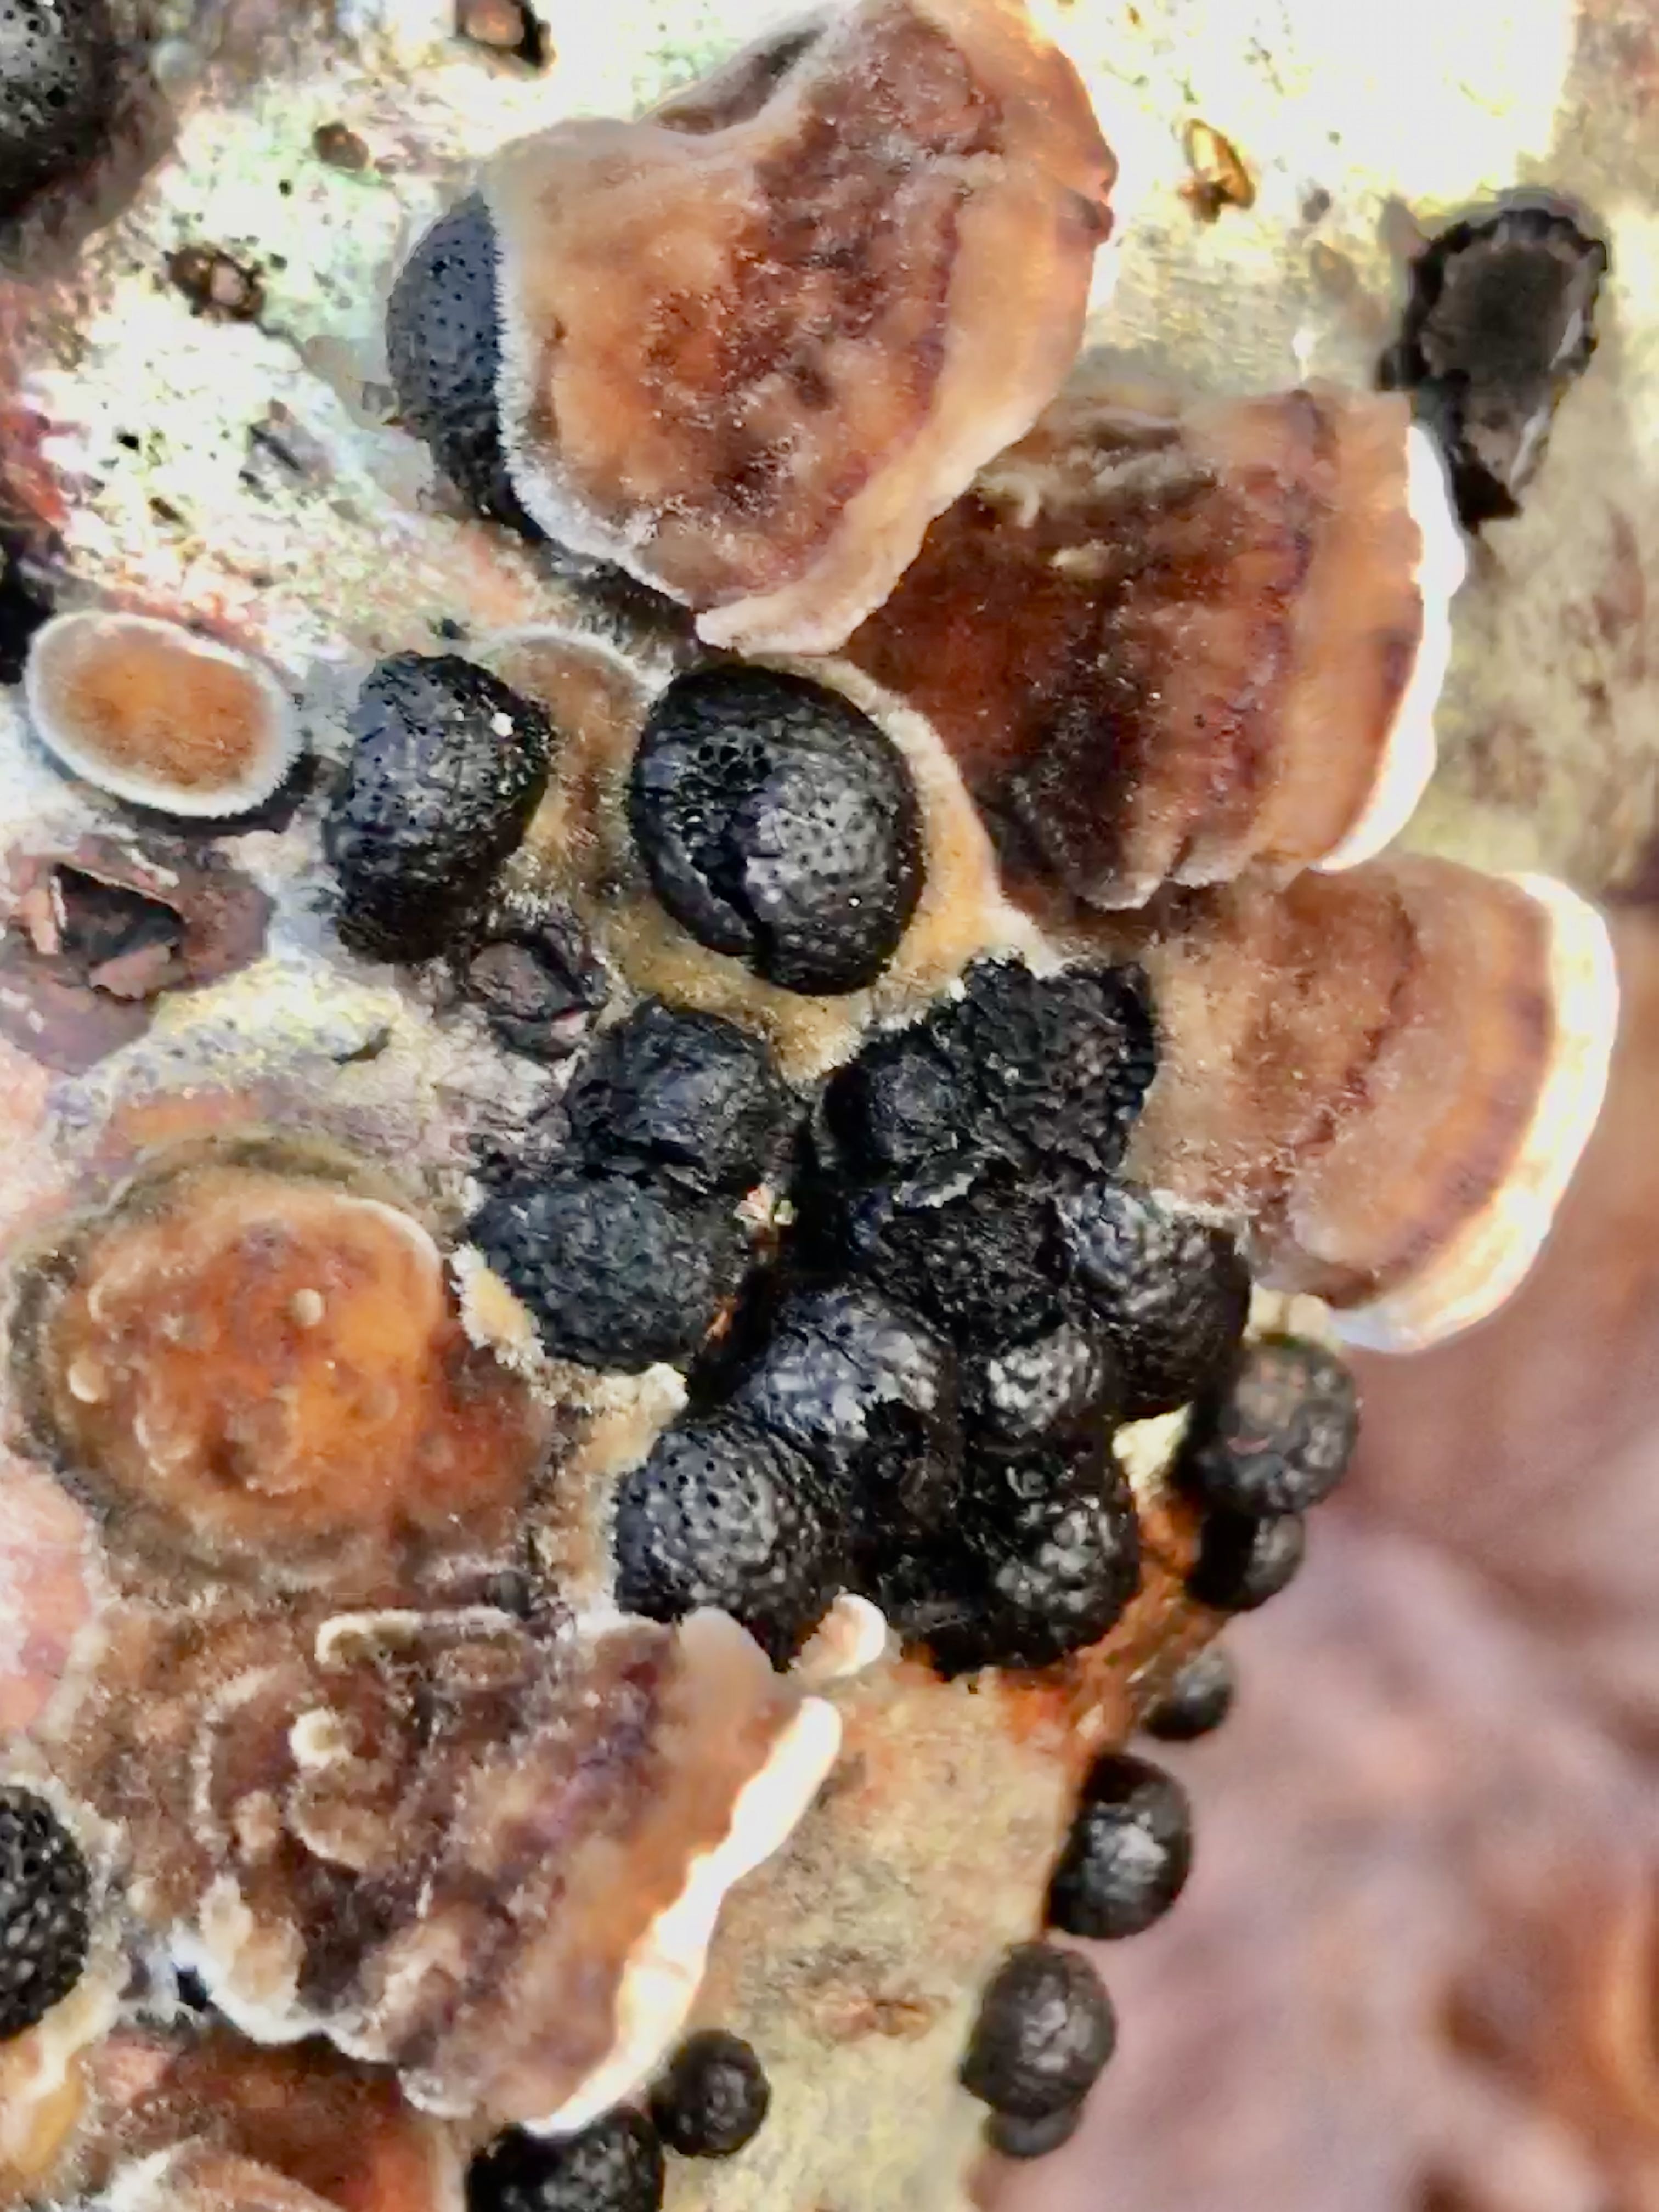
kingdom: Fungi
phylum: Ascomycota
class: Sordariomycetes
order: Xylariales
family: Hypoxylaceae
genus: Hypoxylon
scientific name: Hypoxylon fragiforme
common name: kuljordbær
